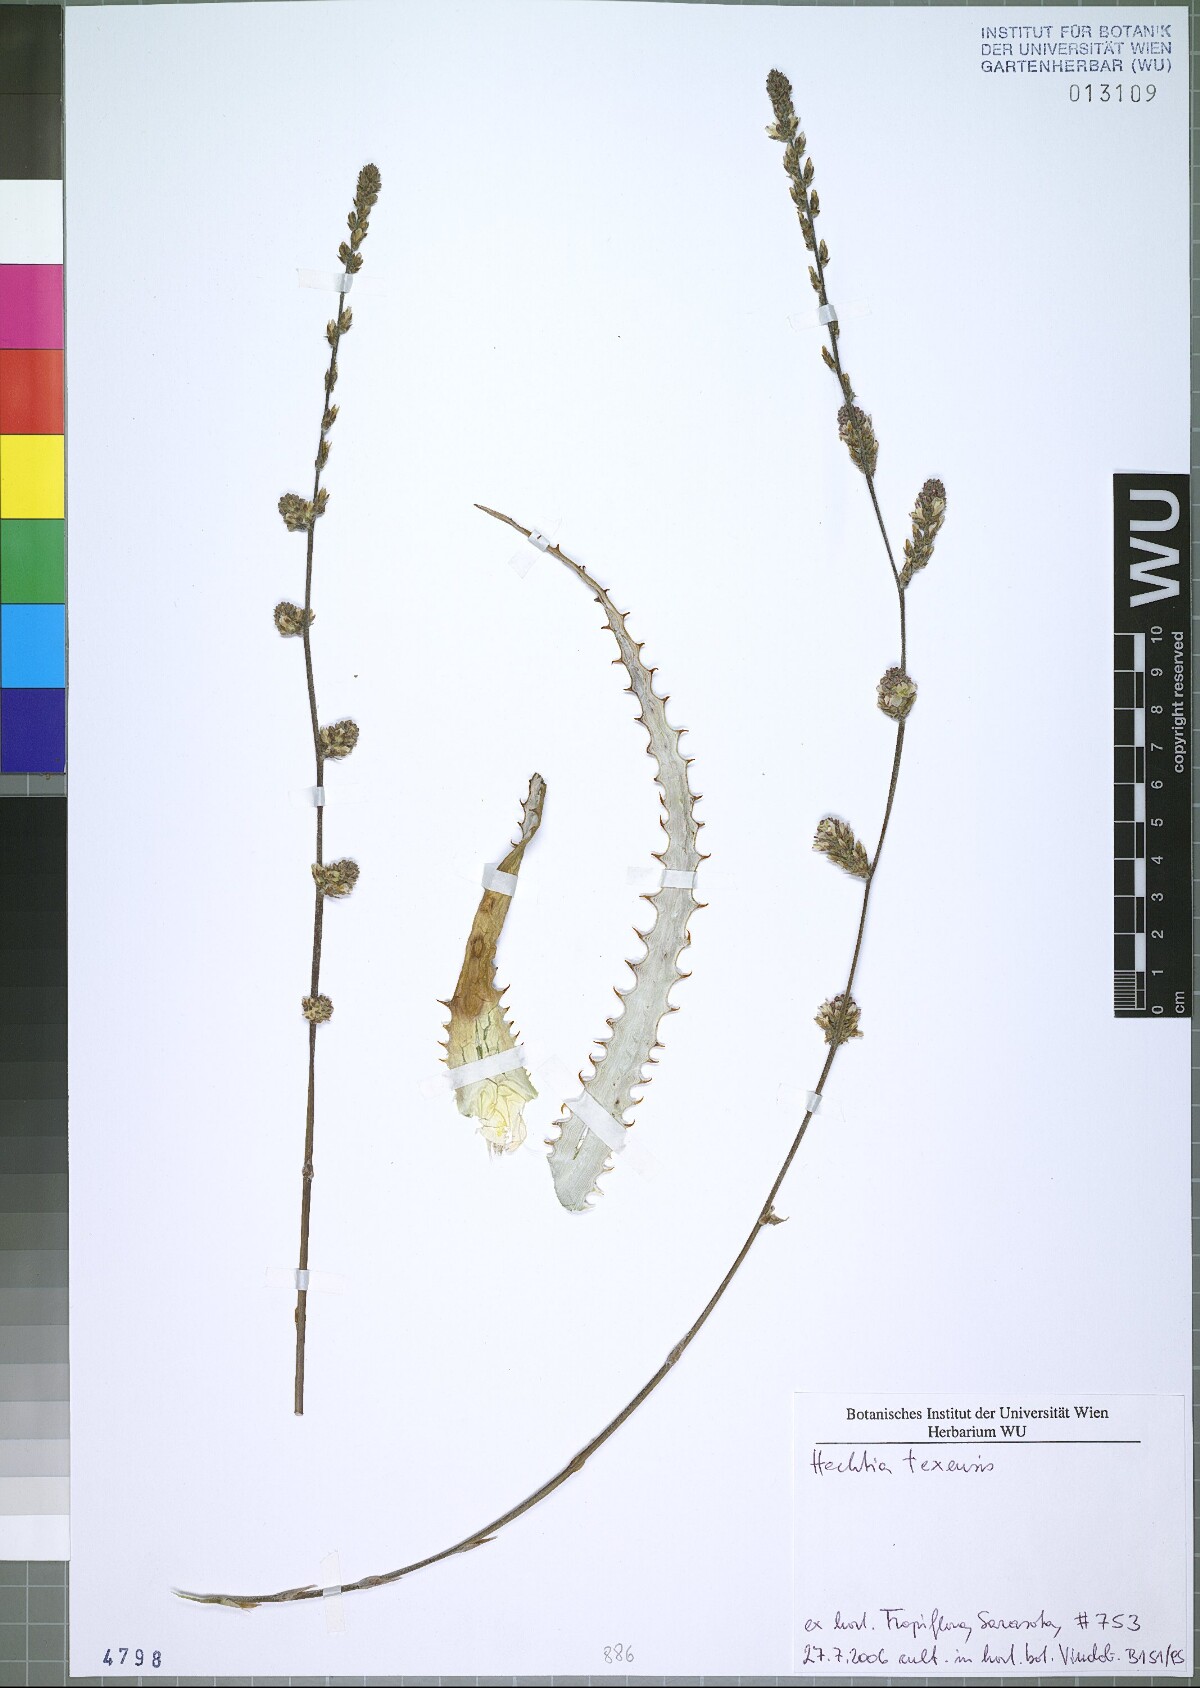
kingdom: Plantae
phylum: Tracheophyta
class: Liliopsida
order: Poales
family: Bromeliaceae
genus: Hechtia
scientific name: Hechtia texensis
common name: False agave
